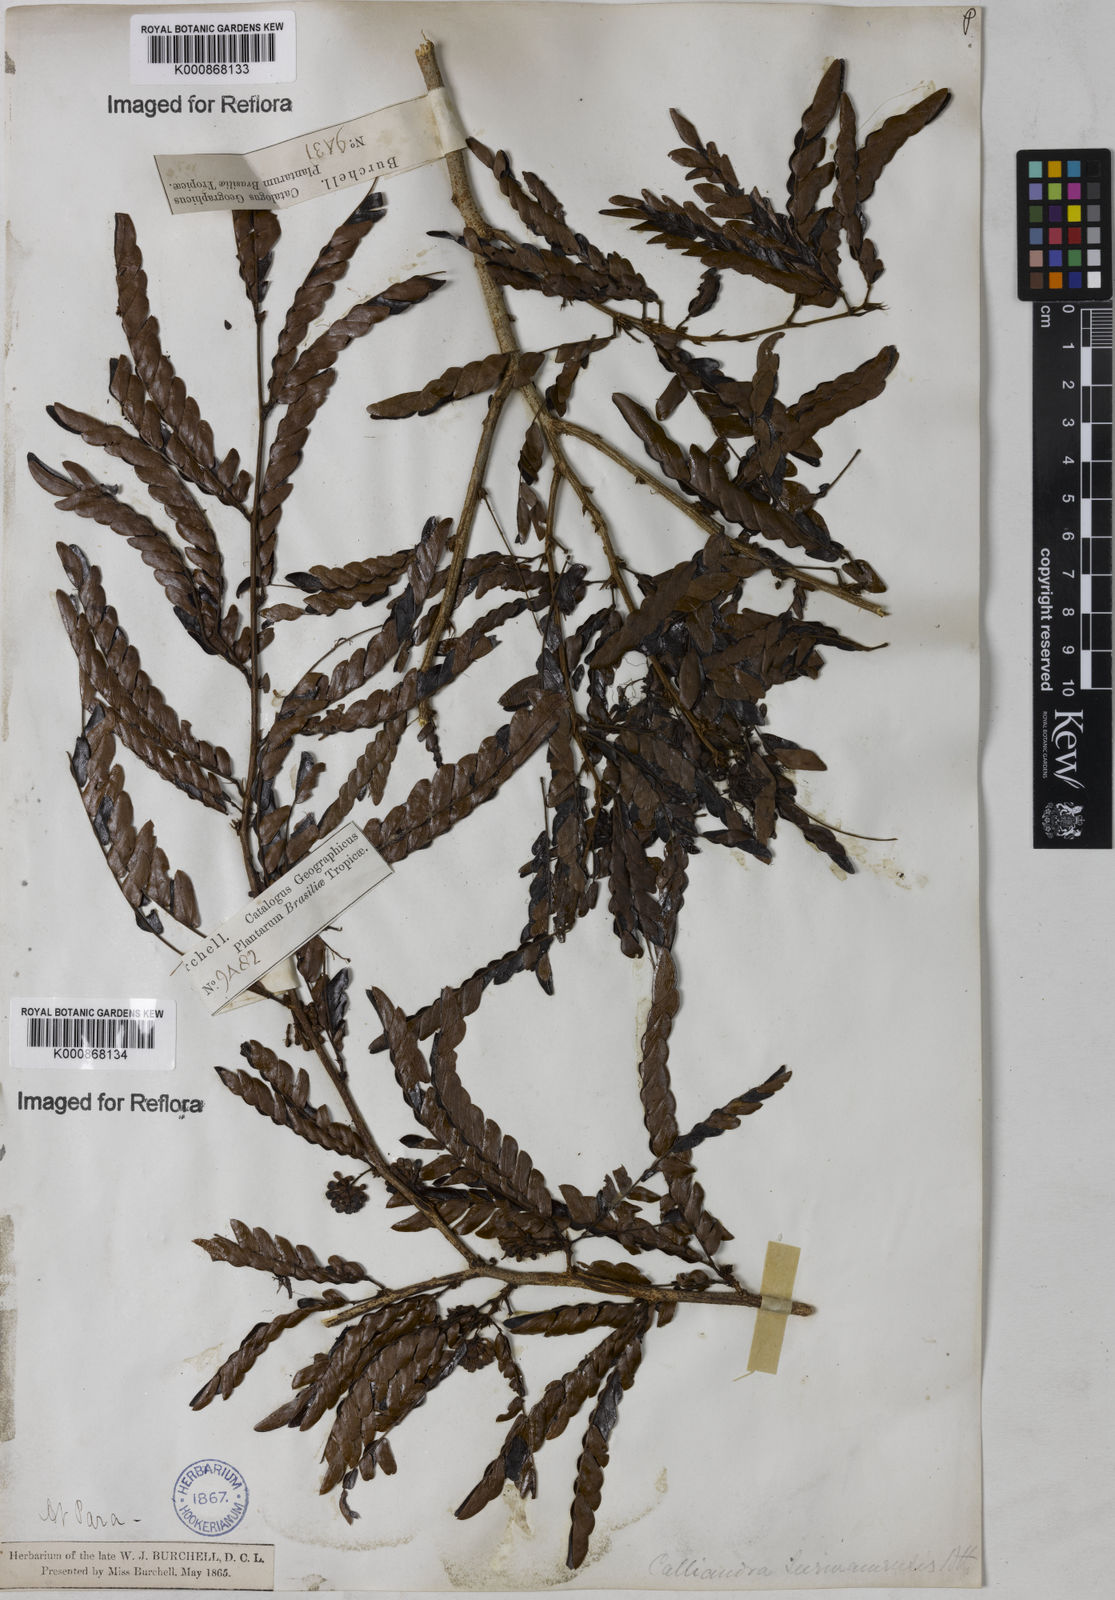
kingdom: Plantae
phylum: Tracheophyta
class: Magnoliopsida
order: Fabales
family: Fabaceae
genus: Calliandra
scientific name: Calliandra surinamensis
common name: Pink powder puff
